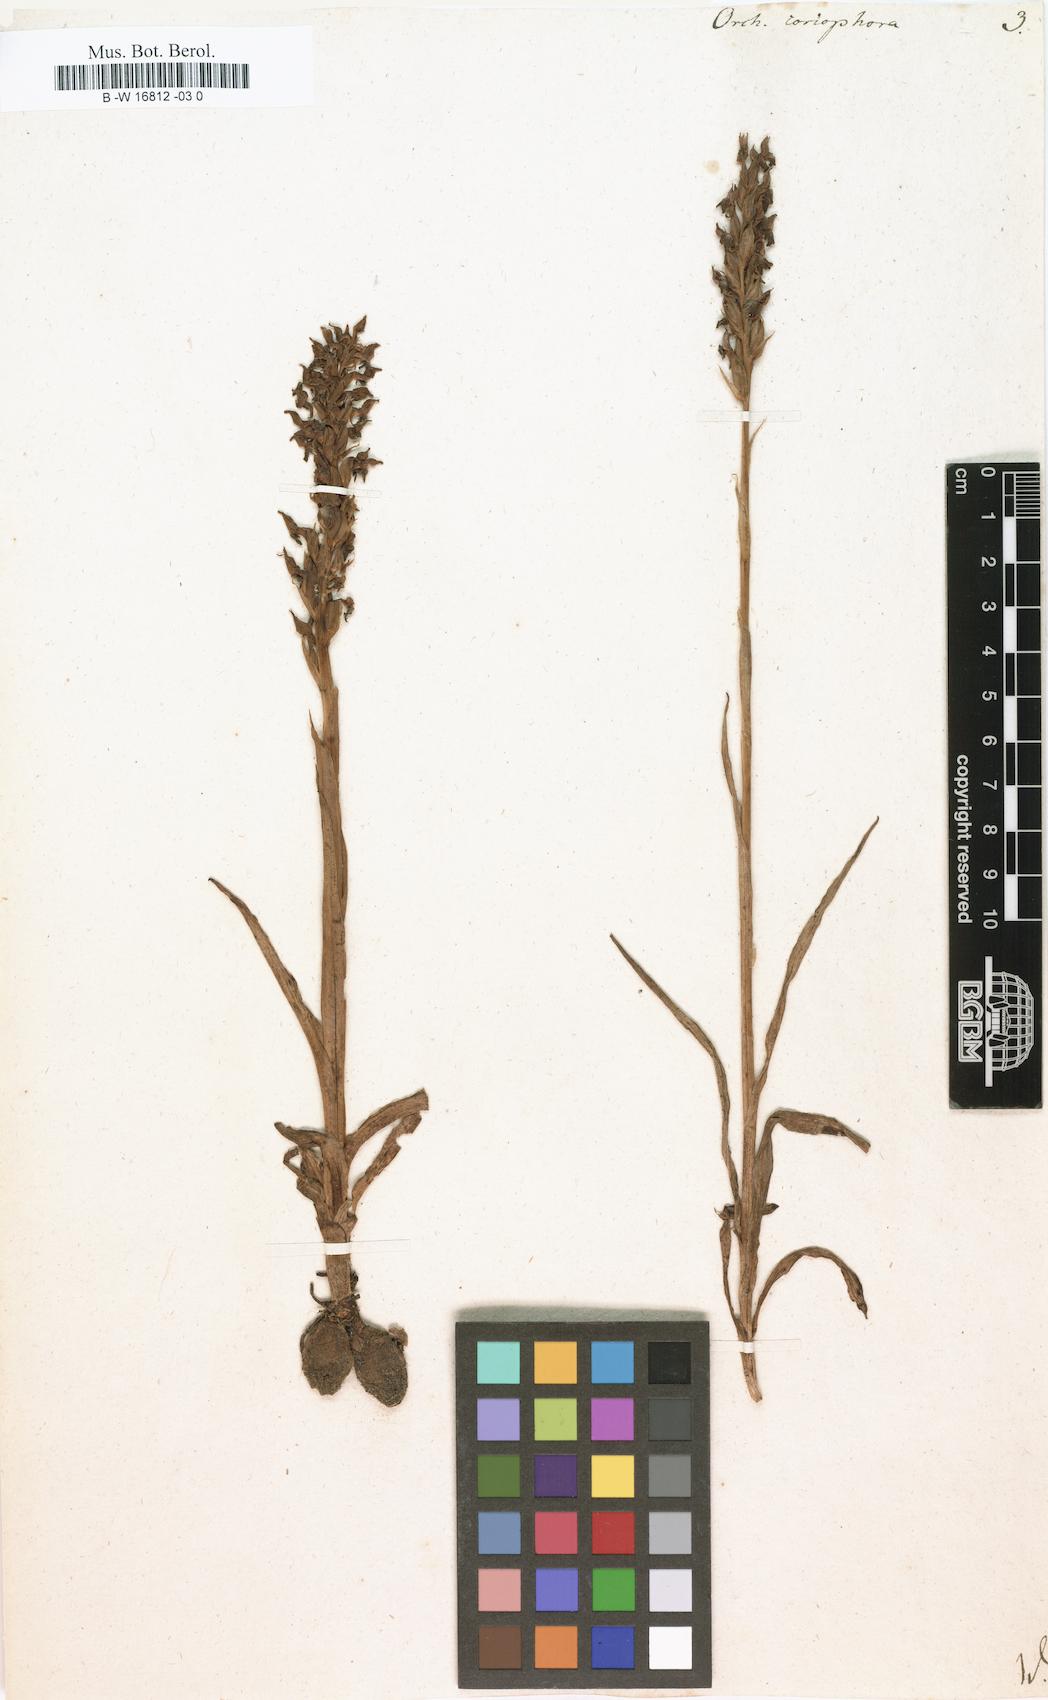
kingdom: Plantae
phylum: Tracheophyta
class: Liliopsida
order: Asparagales
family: Orchidaceae
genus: Anacamptis
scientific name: Anacamptis coriophora
